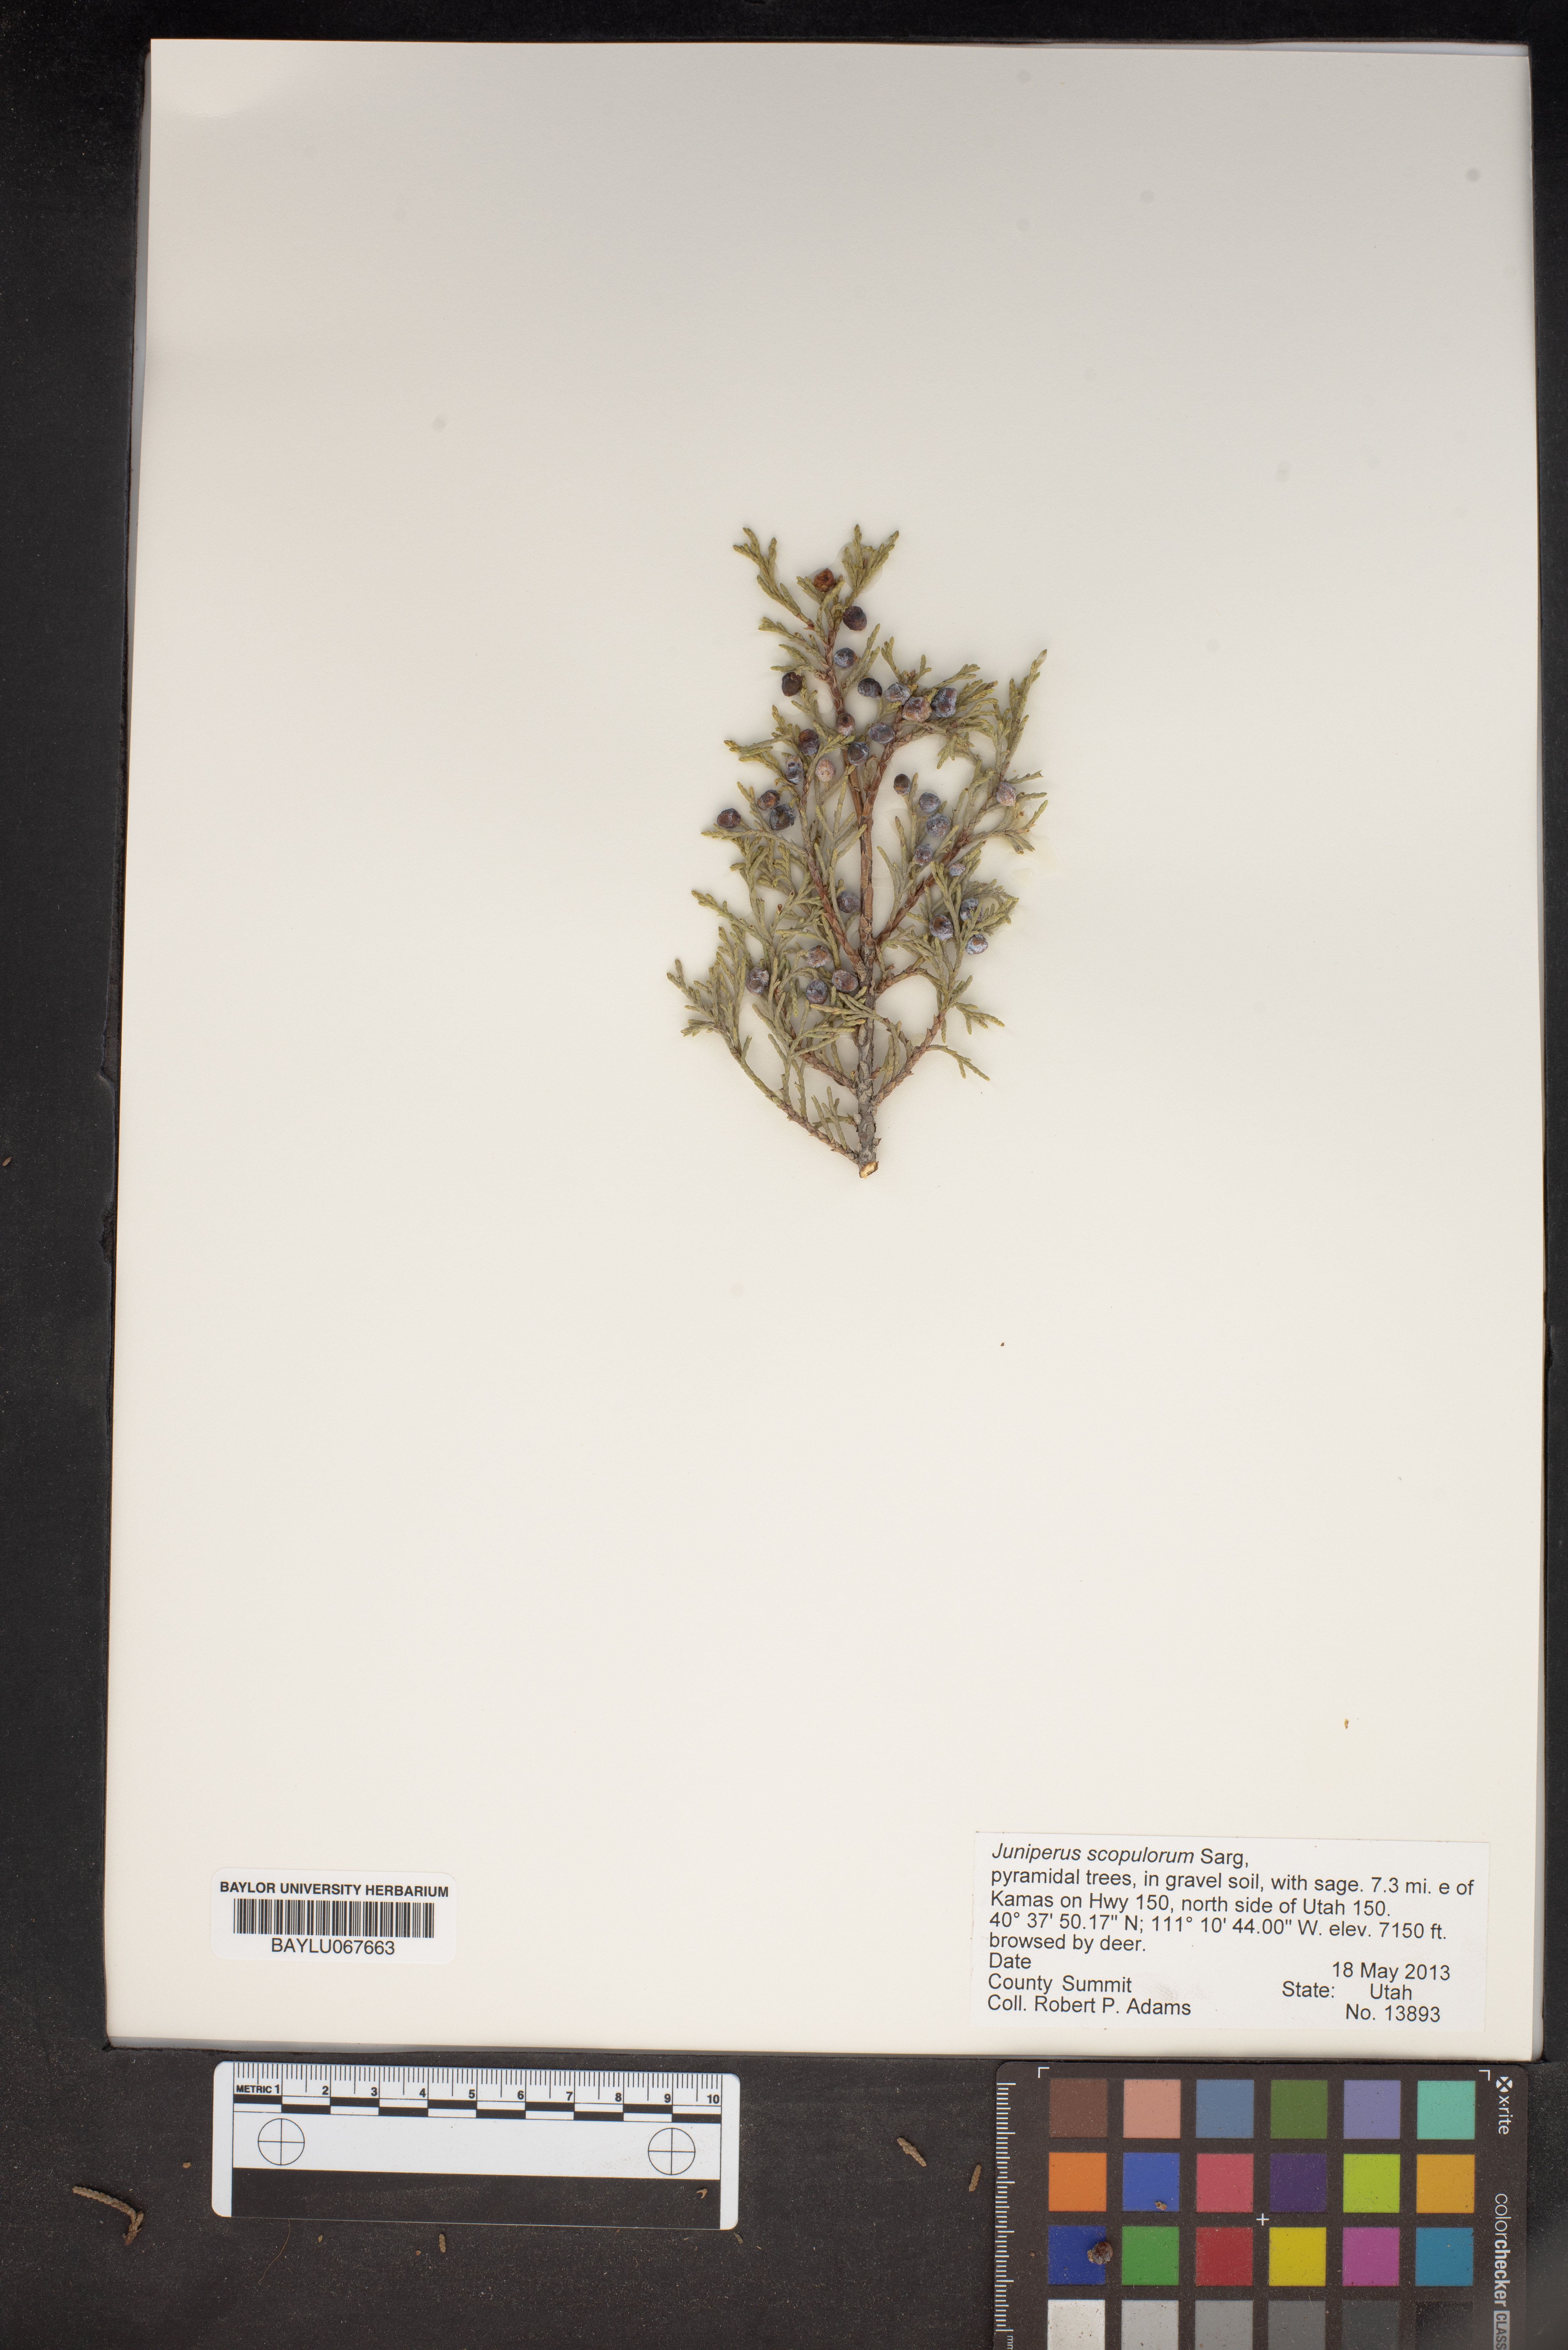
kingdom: Plantae
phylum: Tracheophyta
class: Pinopsida
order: Pinales
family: Cupressaceae
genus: Juniperus
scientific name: Juniperus scopulorum
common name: Rocky mountain juniper
